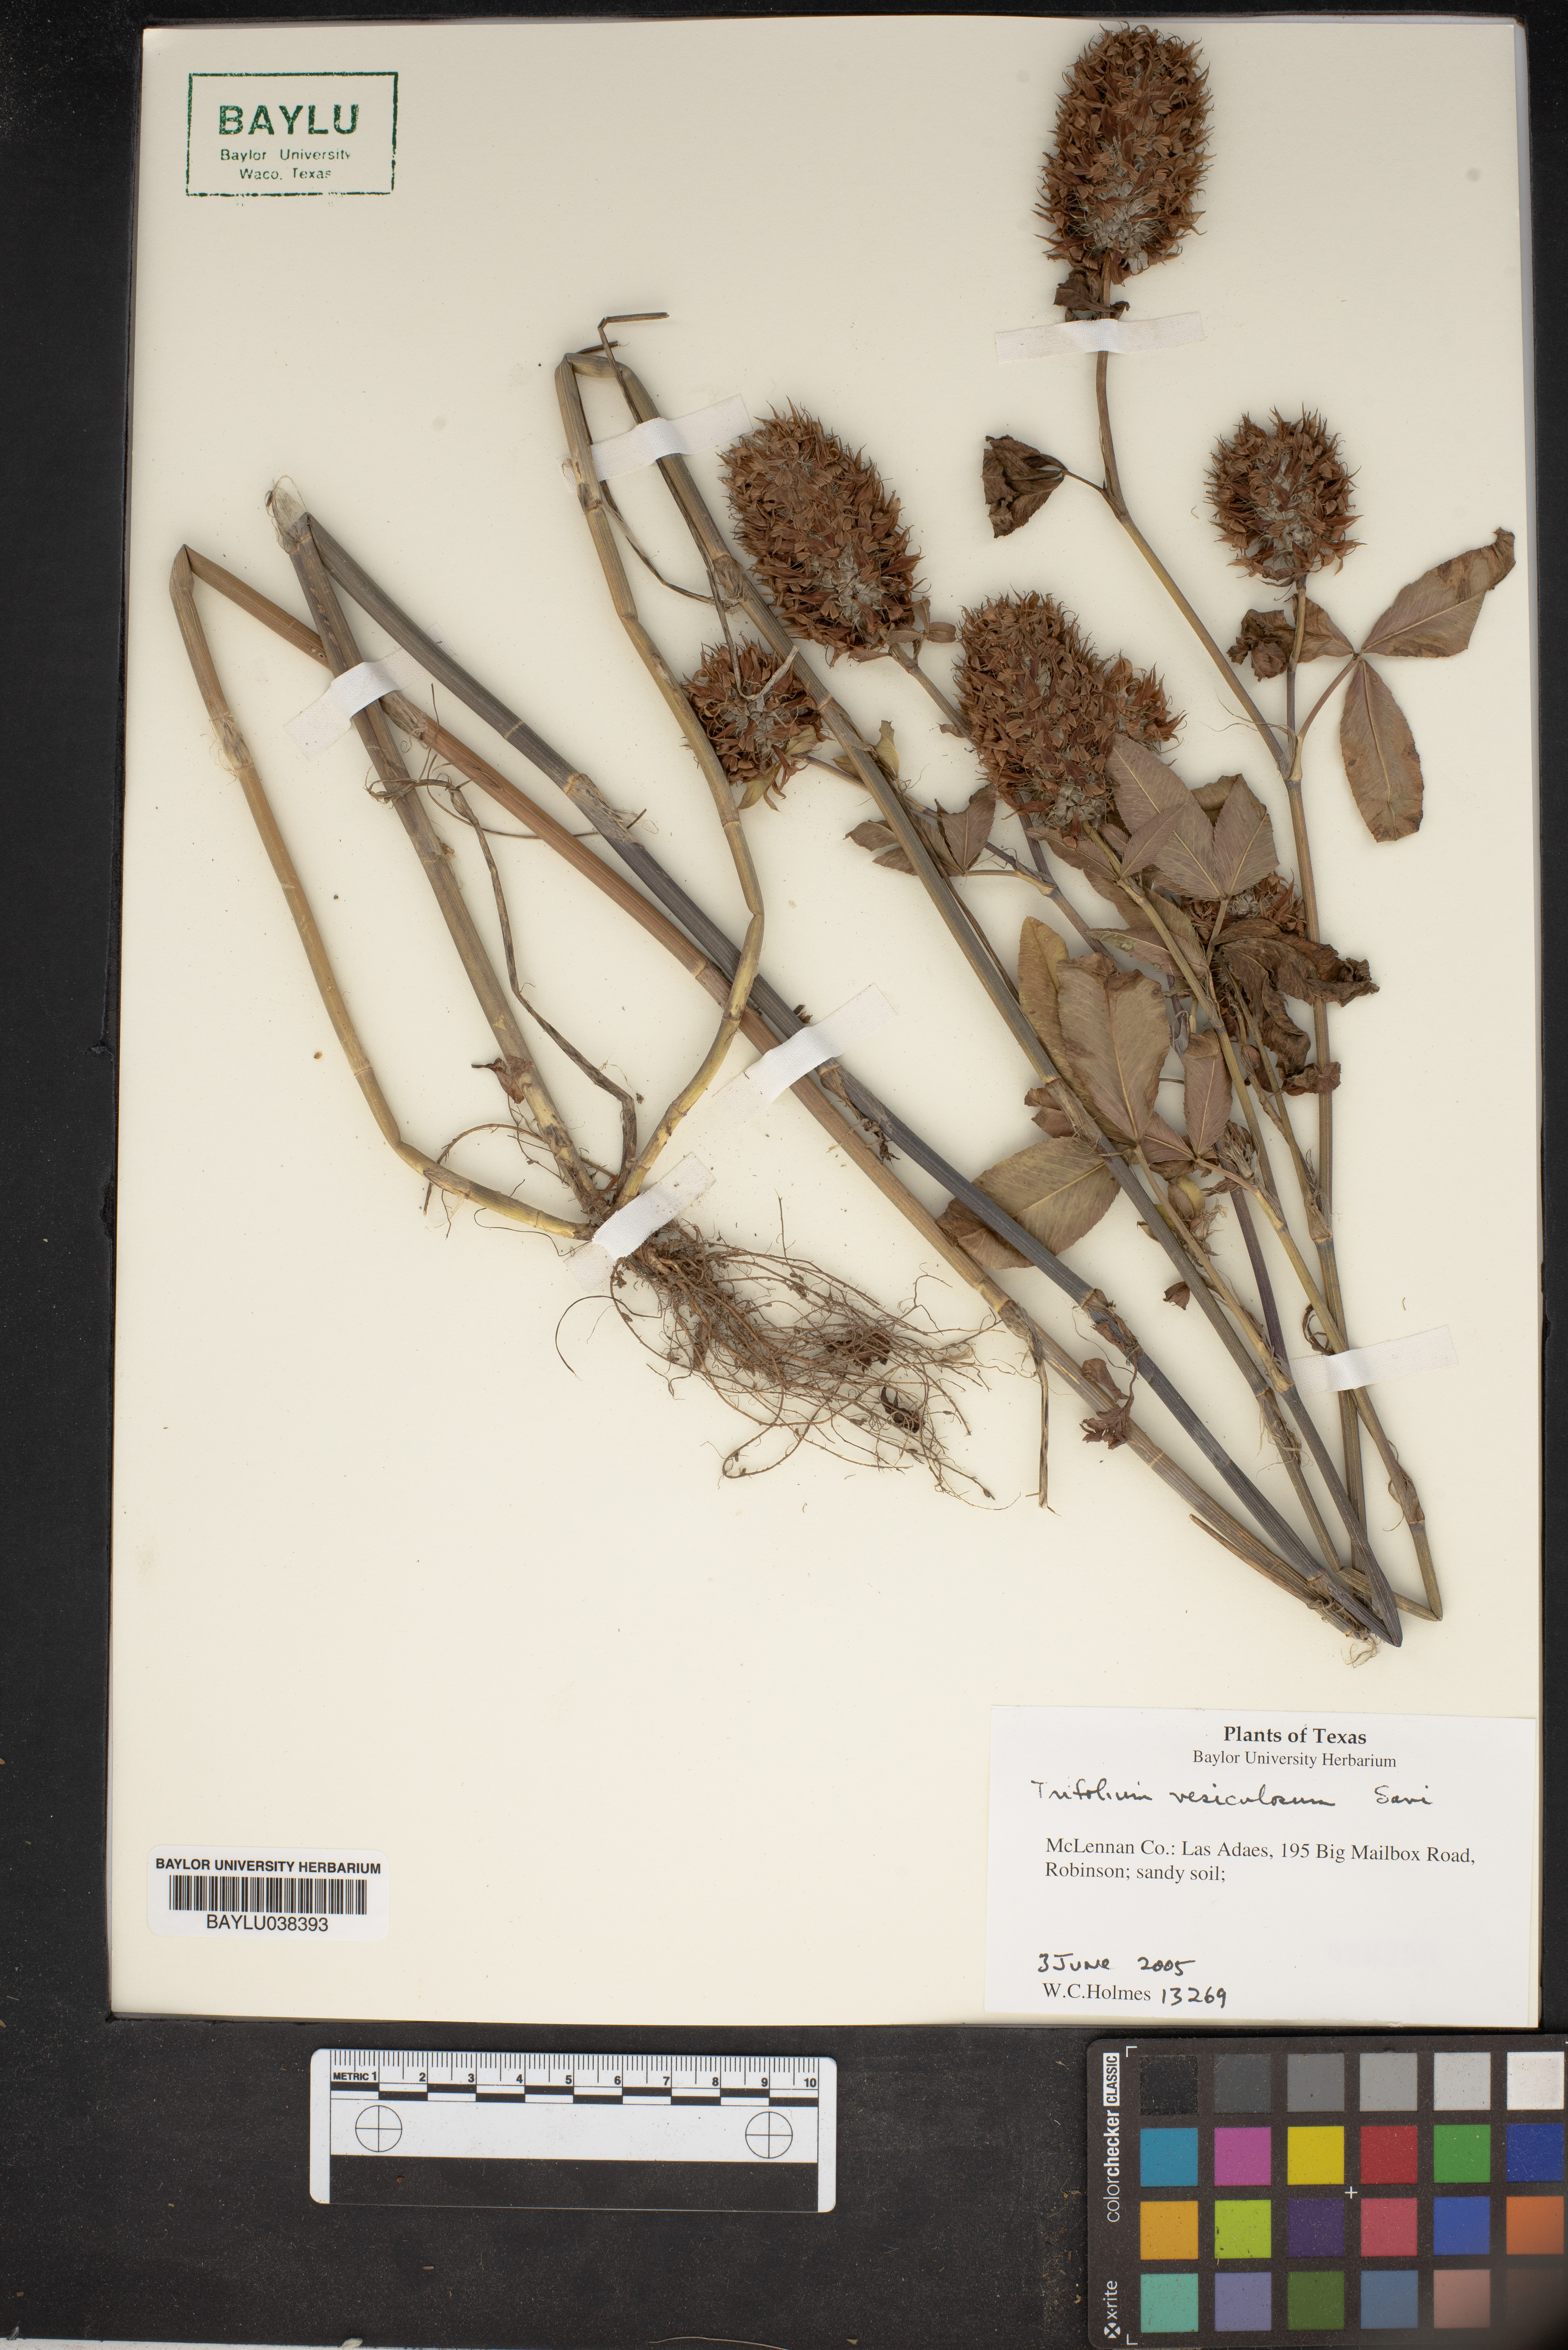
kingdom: Plantae
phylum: Tracheophyta
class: Magnoliopsida
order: Fabales
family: Fabaceae
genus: Trifolium
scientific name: Trifolium vesiculosum
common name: Arrowleaf clover
